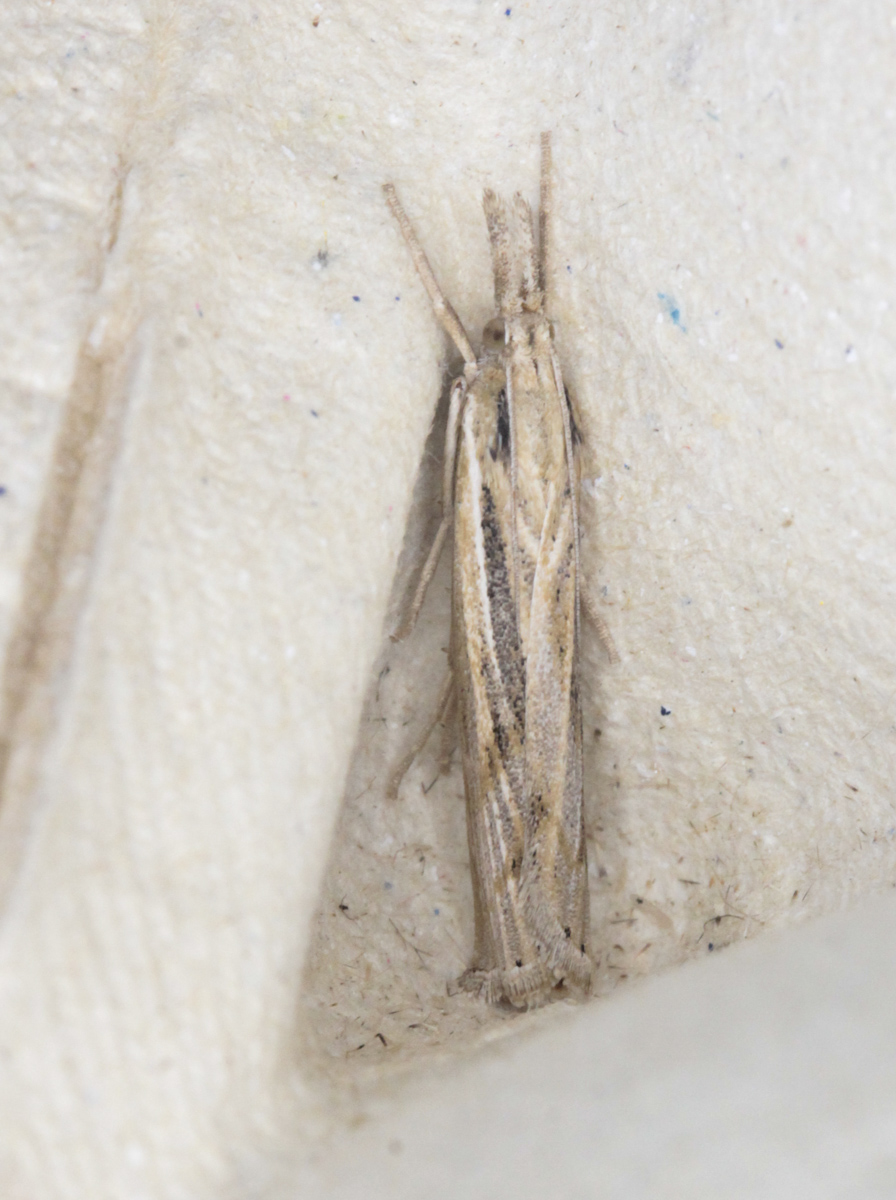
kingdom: Animalia
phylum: Arthropoda
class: Insecta
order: Lepidoptera
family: Crambidae
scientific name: Crambidae
